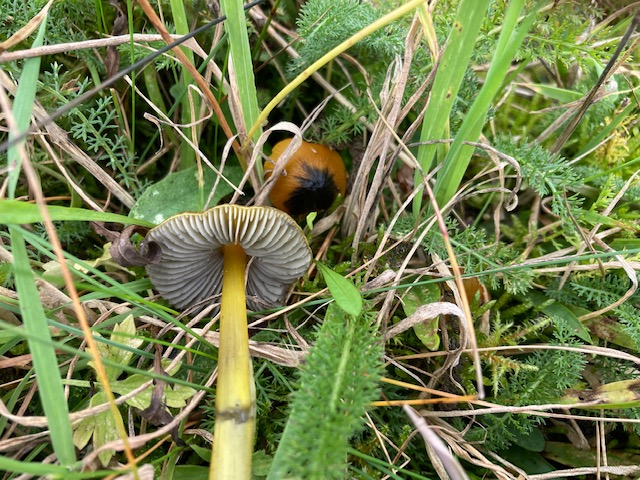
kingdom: Fungi
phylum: Basidiomycota
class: Agaricomycetes
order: Agaricales
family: Hygrophoraceae
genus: Hygrocybe
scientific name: Hygrocybe conica
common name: kegle-vokshat
